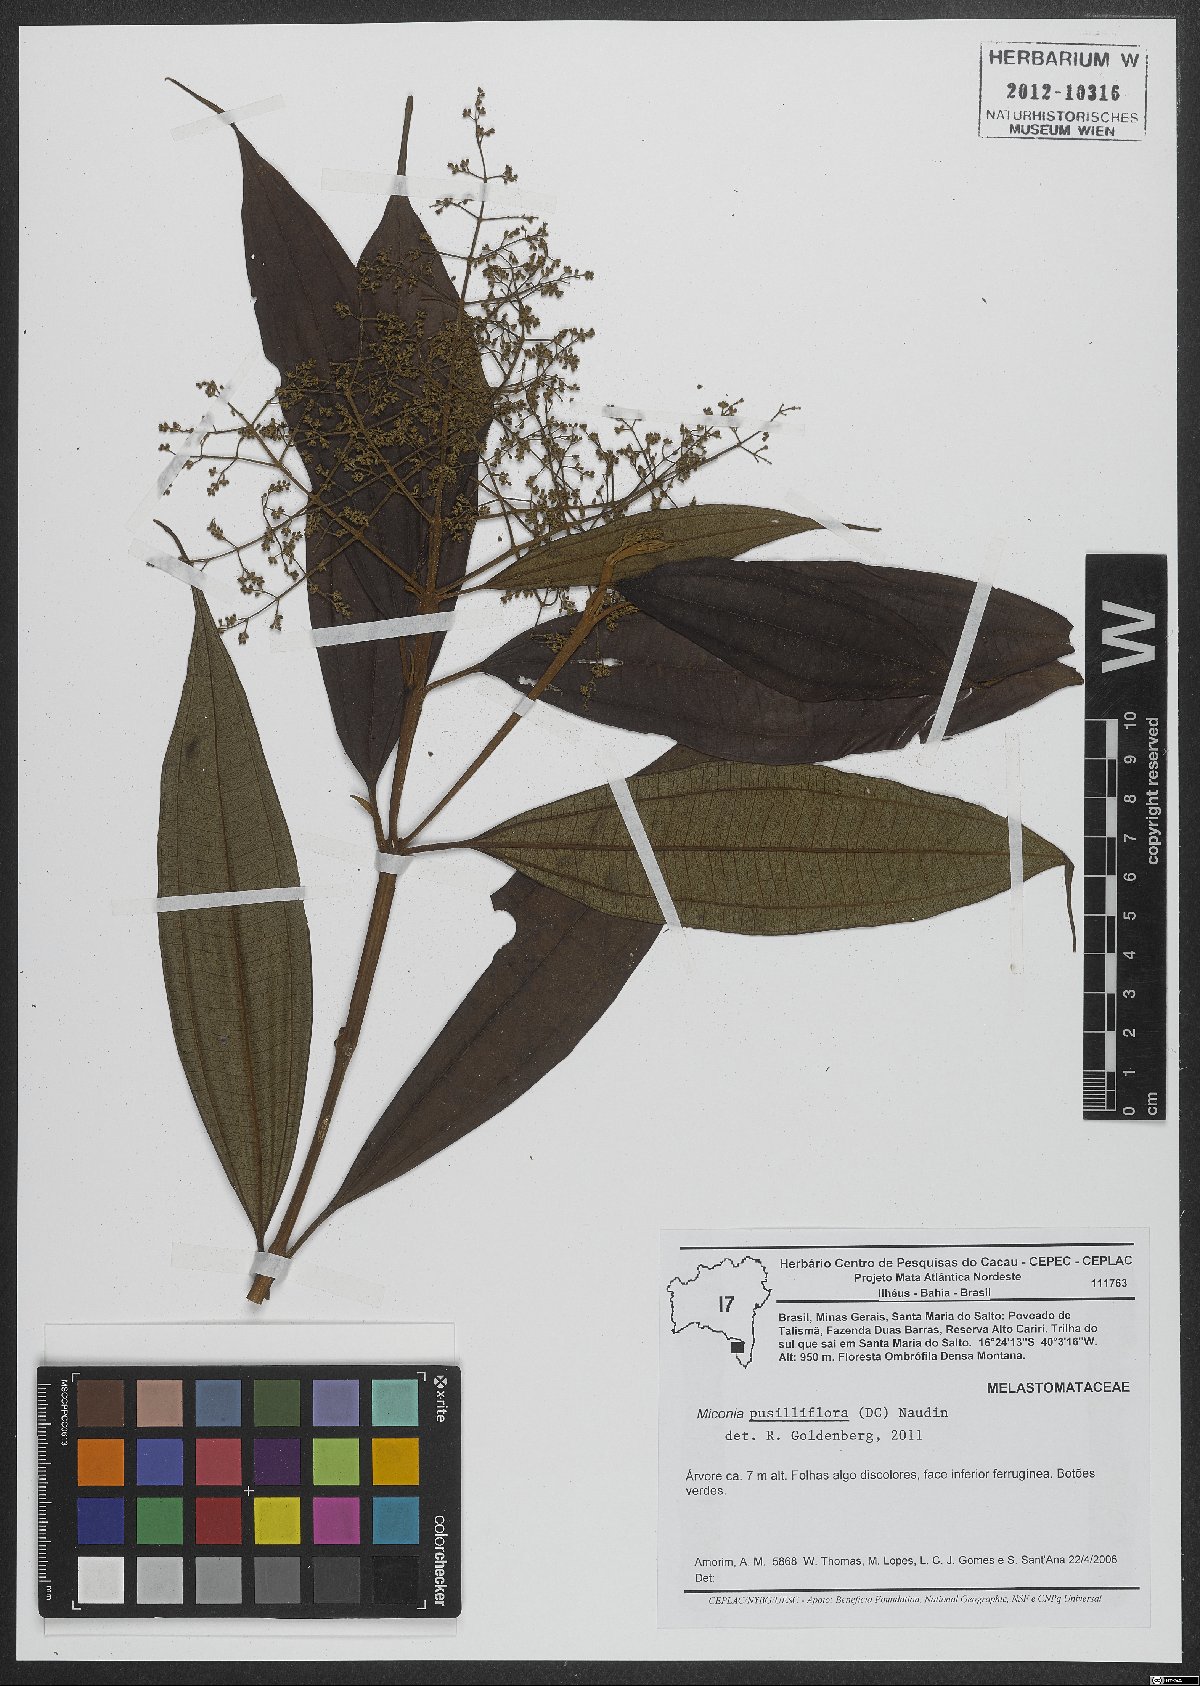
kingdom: Plantae
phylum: Tracheophyta
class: Magnoliopsida
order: Myrtales
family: Melastomataceae
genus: Miconia
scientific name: Miconia pusilliflora
